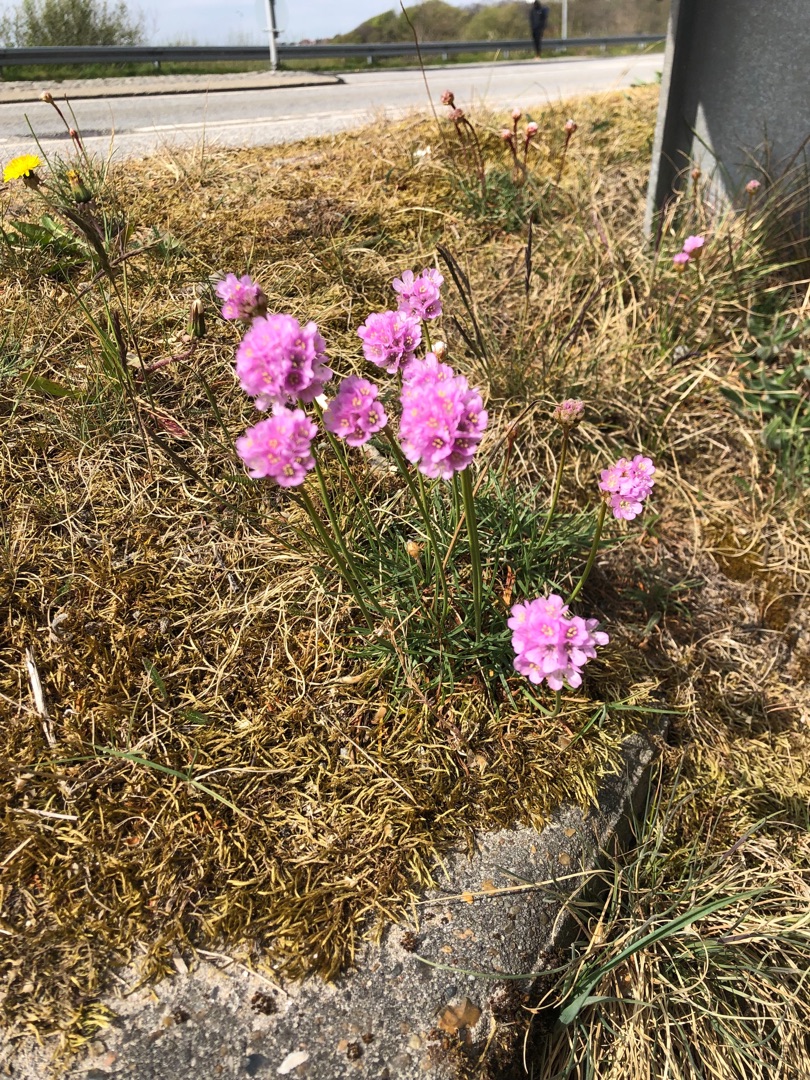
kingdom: Plantae
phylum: Tracheophyta
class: Magnoliopsida
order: Caryophyllales
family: Plumbaginaceae
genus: Armeria
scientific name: Armeria maritima
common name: Engelskgræs
